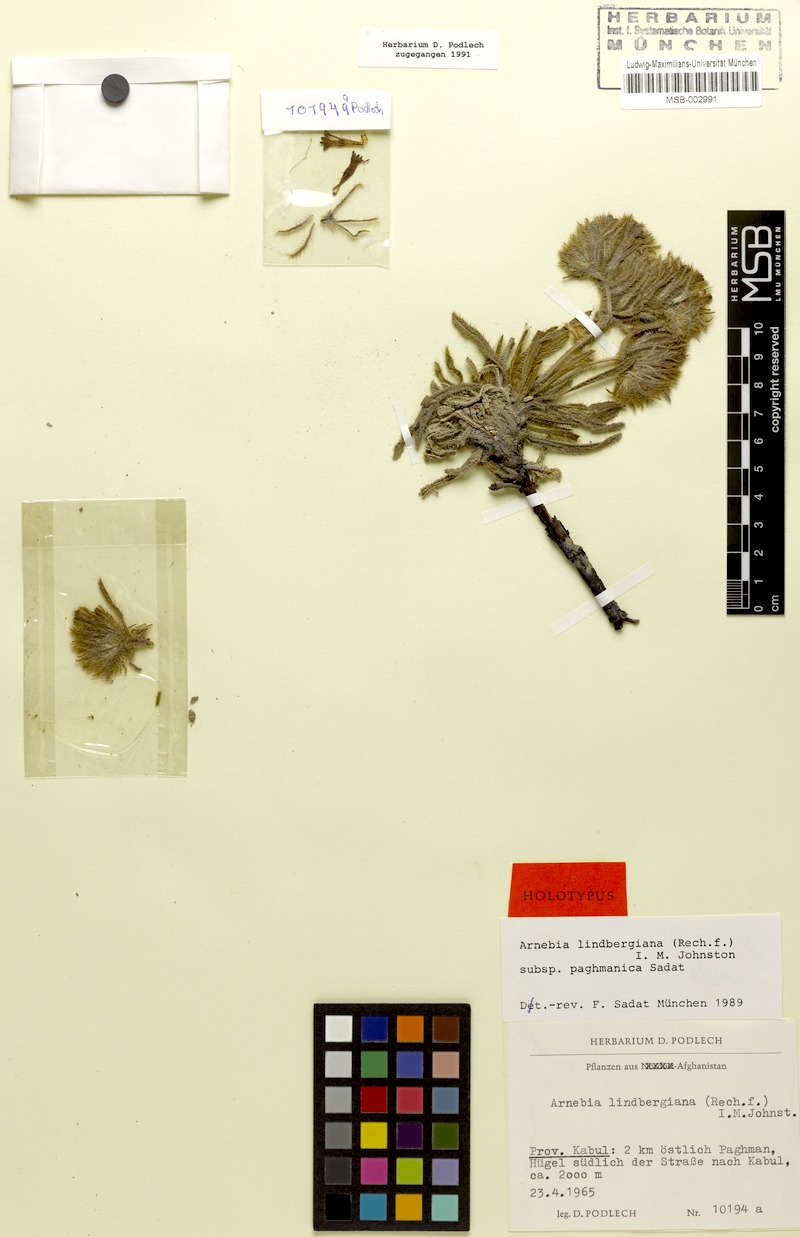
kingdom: Plantae
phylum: Tracheophyta
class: Magnoliopsida
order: Boraginales
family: Boraginaceae
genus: Arnebia
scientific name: Arnebia lindbergiana
